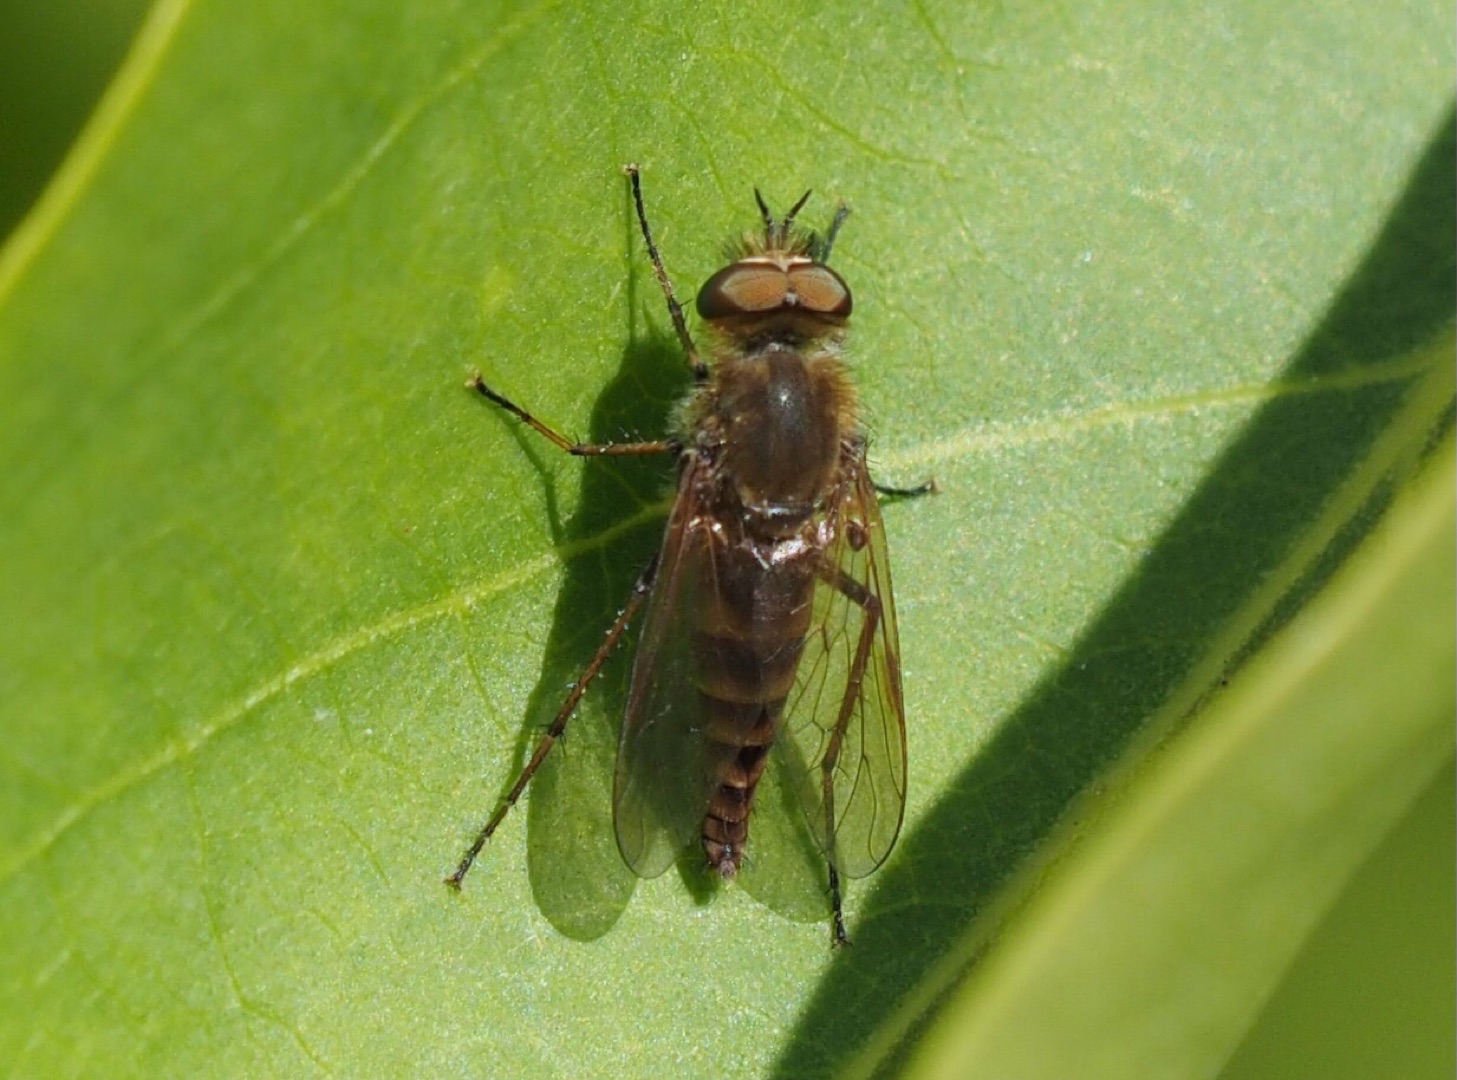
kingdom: Animalia
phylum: Arthropoda
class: Insecta
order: Diptera
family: Therevidae
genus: Thereva
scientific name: Thereva
